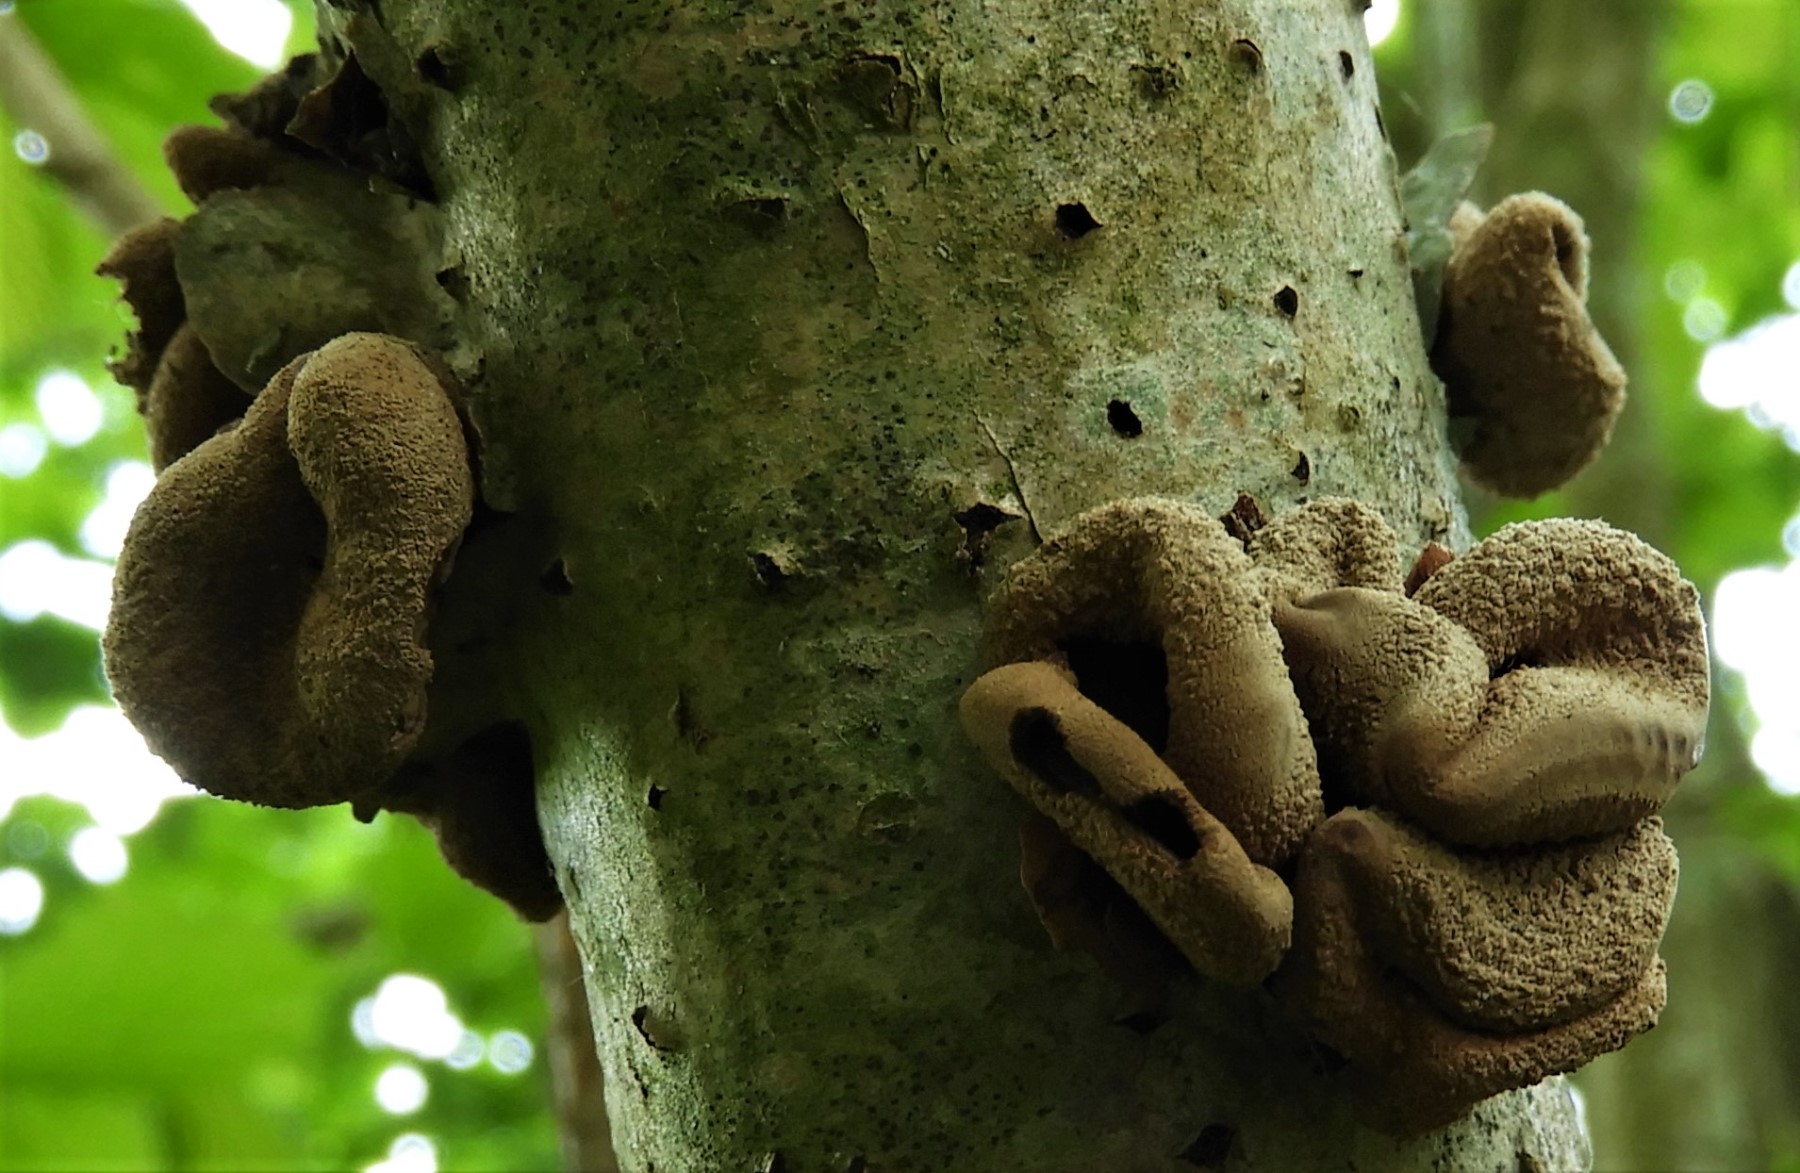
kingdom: Fungi
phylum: Ascomycota
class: Leotiomycetes
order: Helotiales
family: Cenangiaceae
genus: Encoelia
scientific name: Encoelia furfuracea
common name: hassel-læderskive
